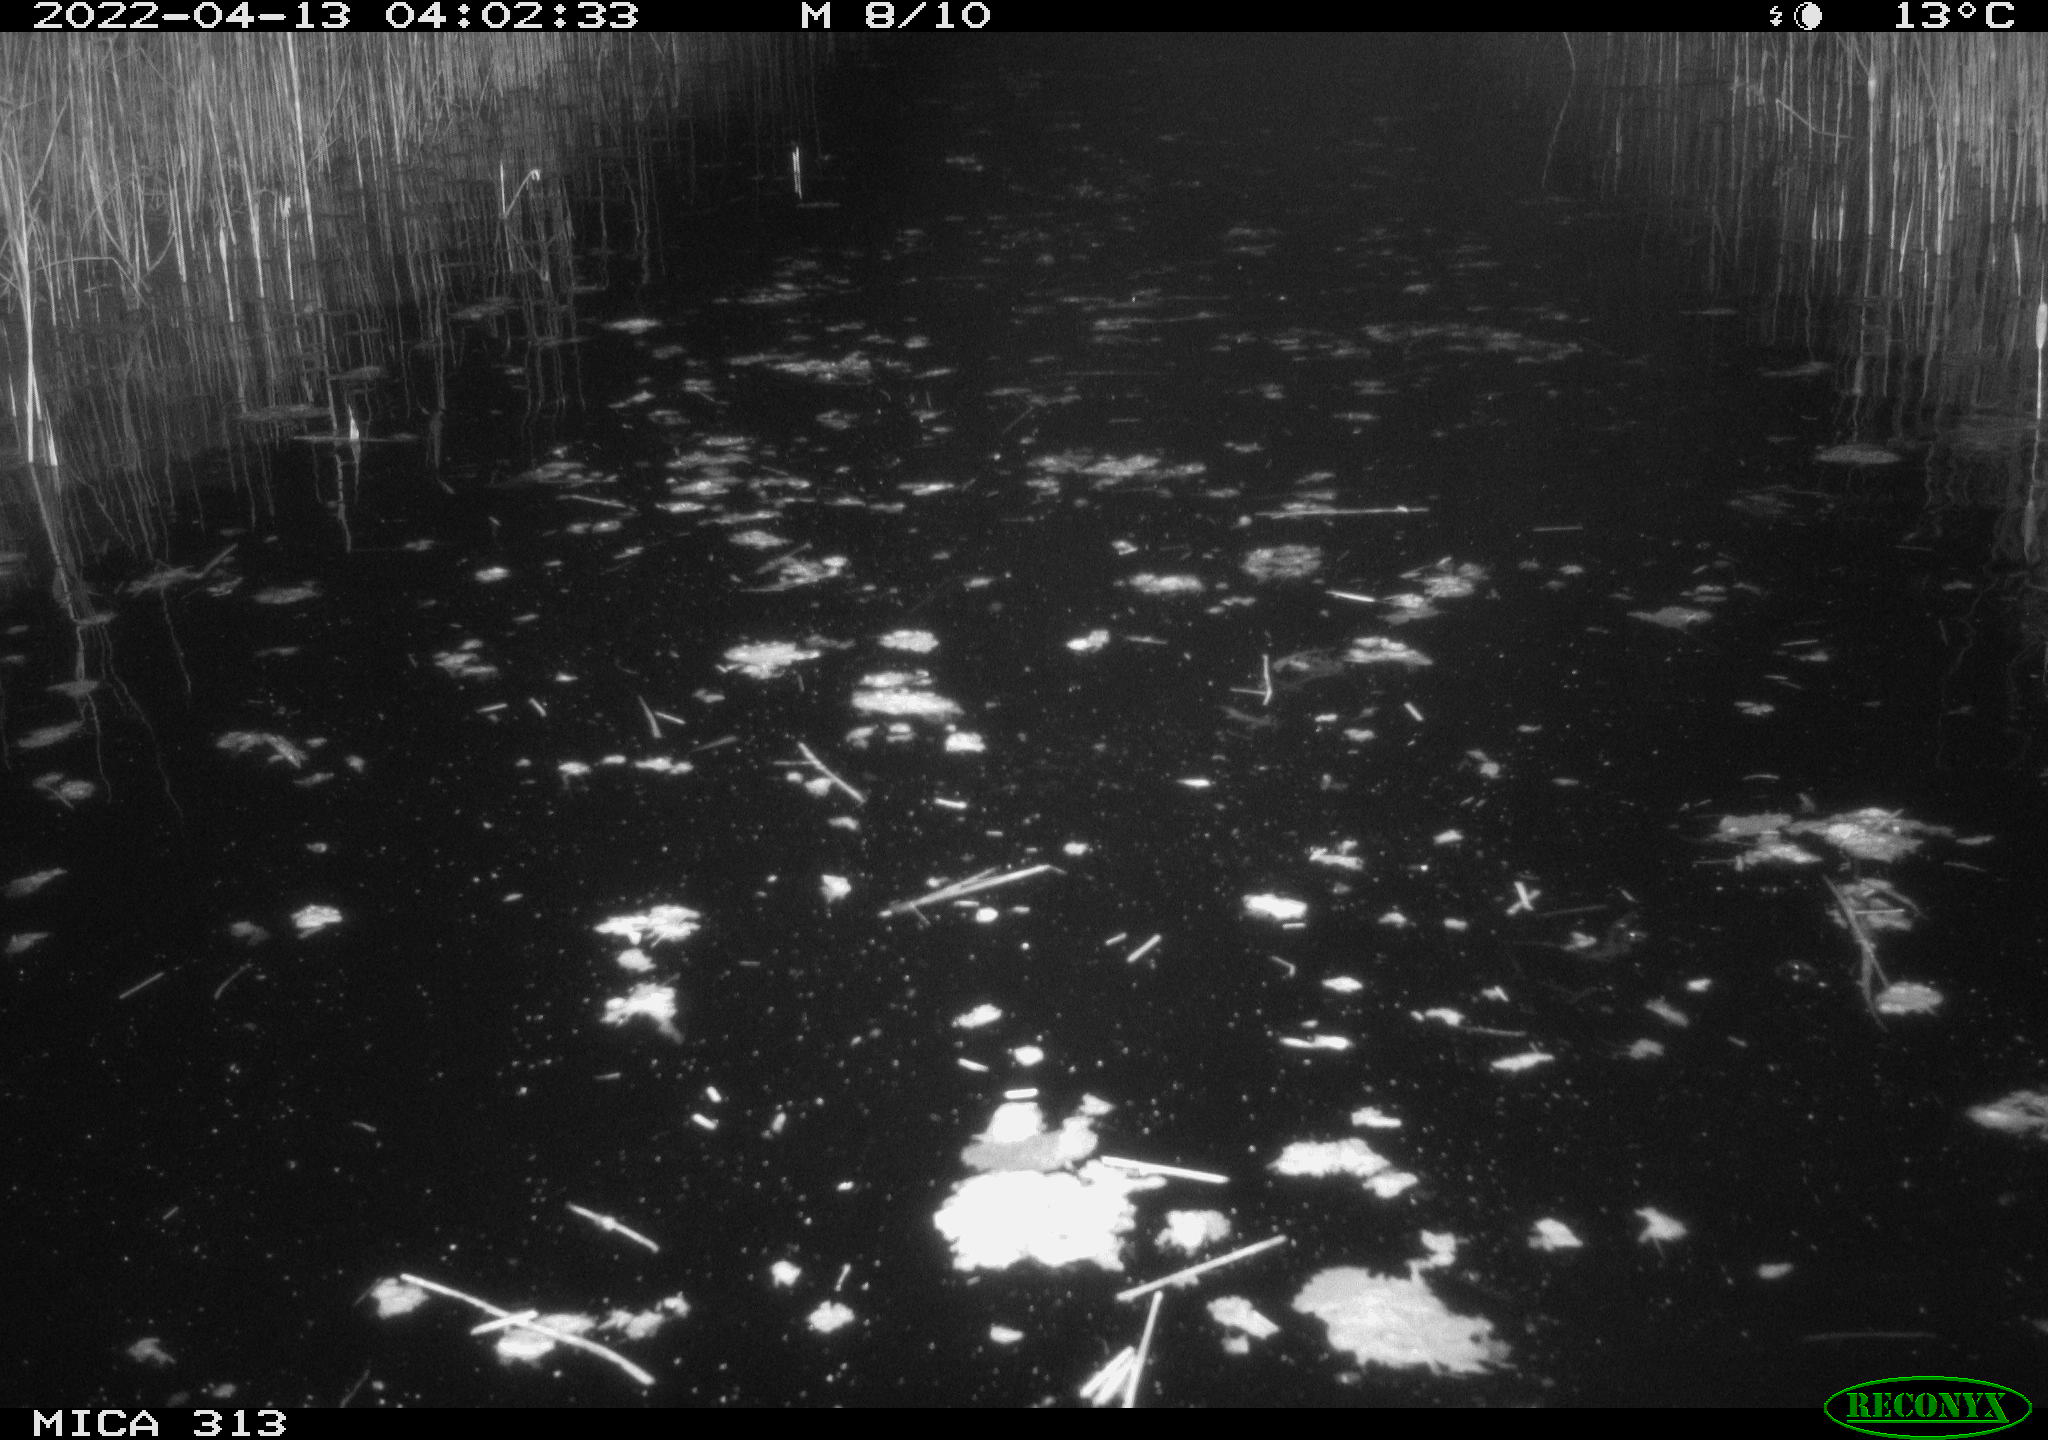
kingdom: Animalia
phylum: Chordata
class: Aves
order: Gruiformes
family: Rallidae
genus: Gallinula
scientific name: Gallinula chloropus
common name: Common moorhen
